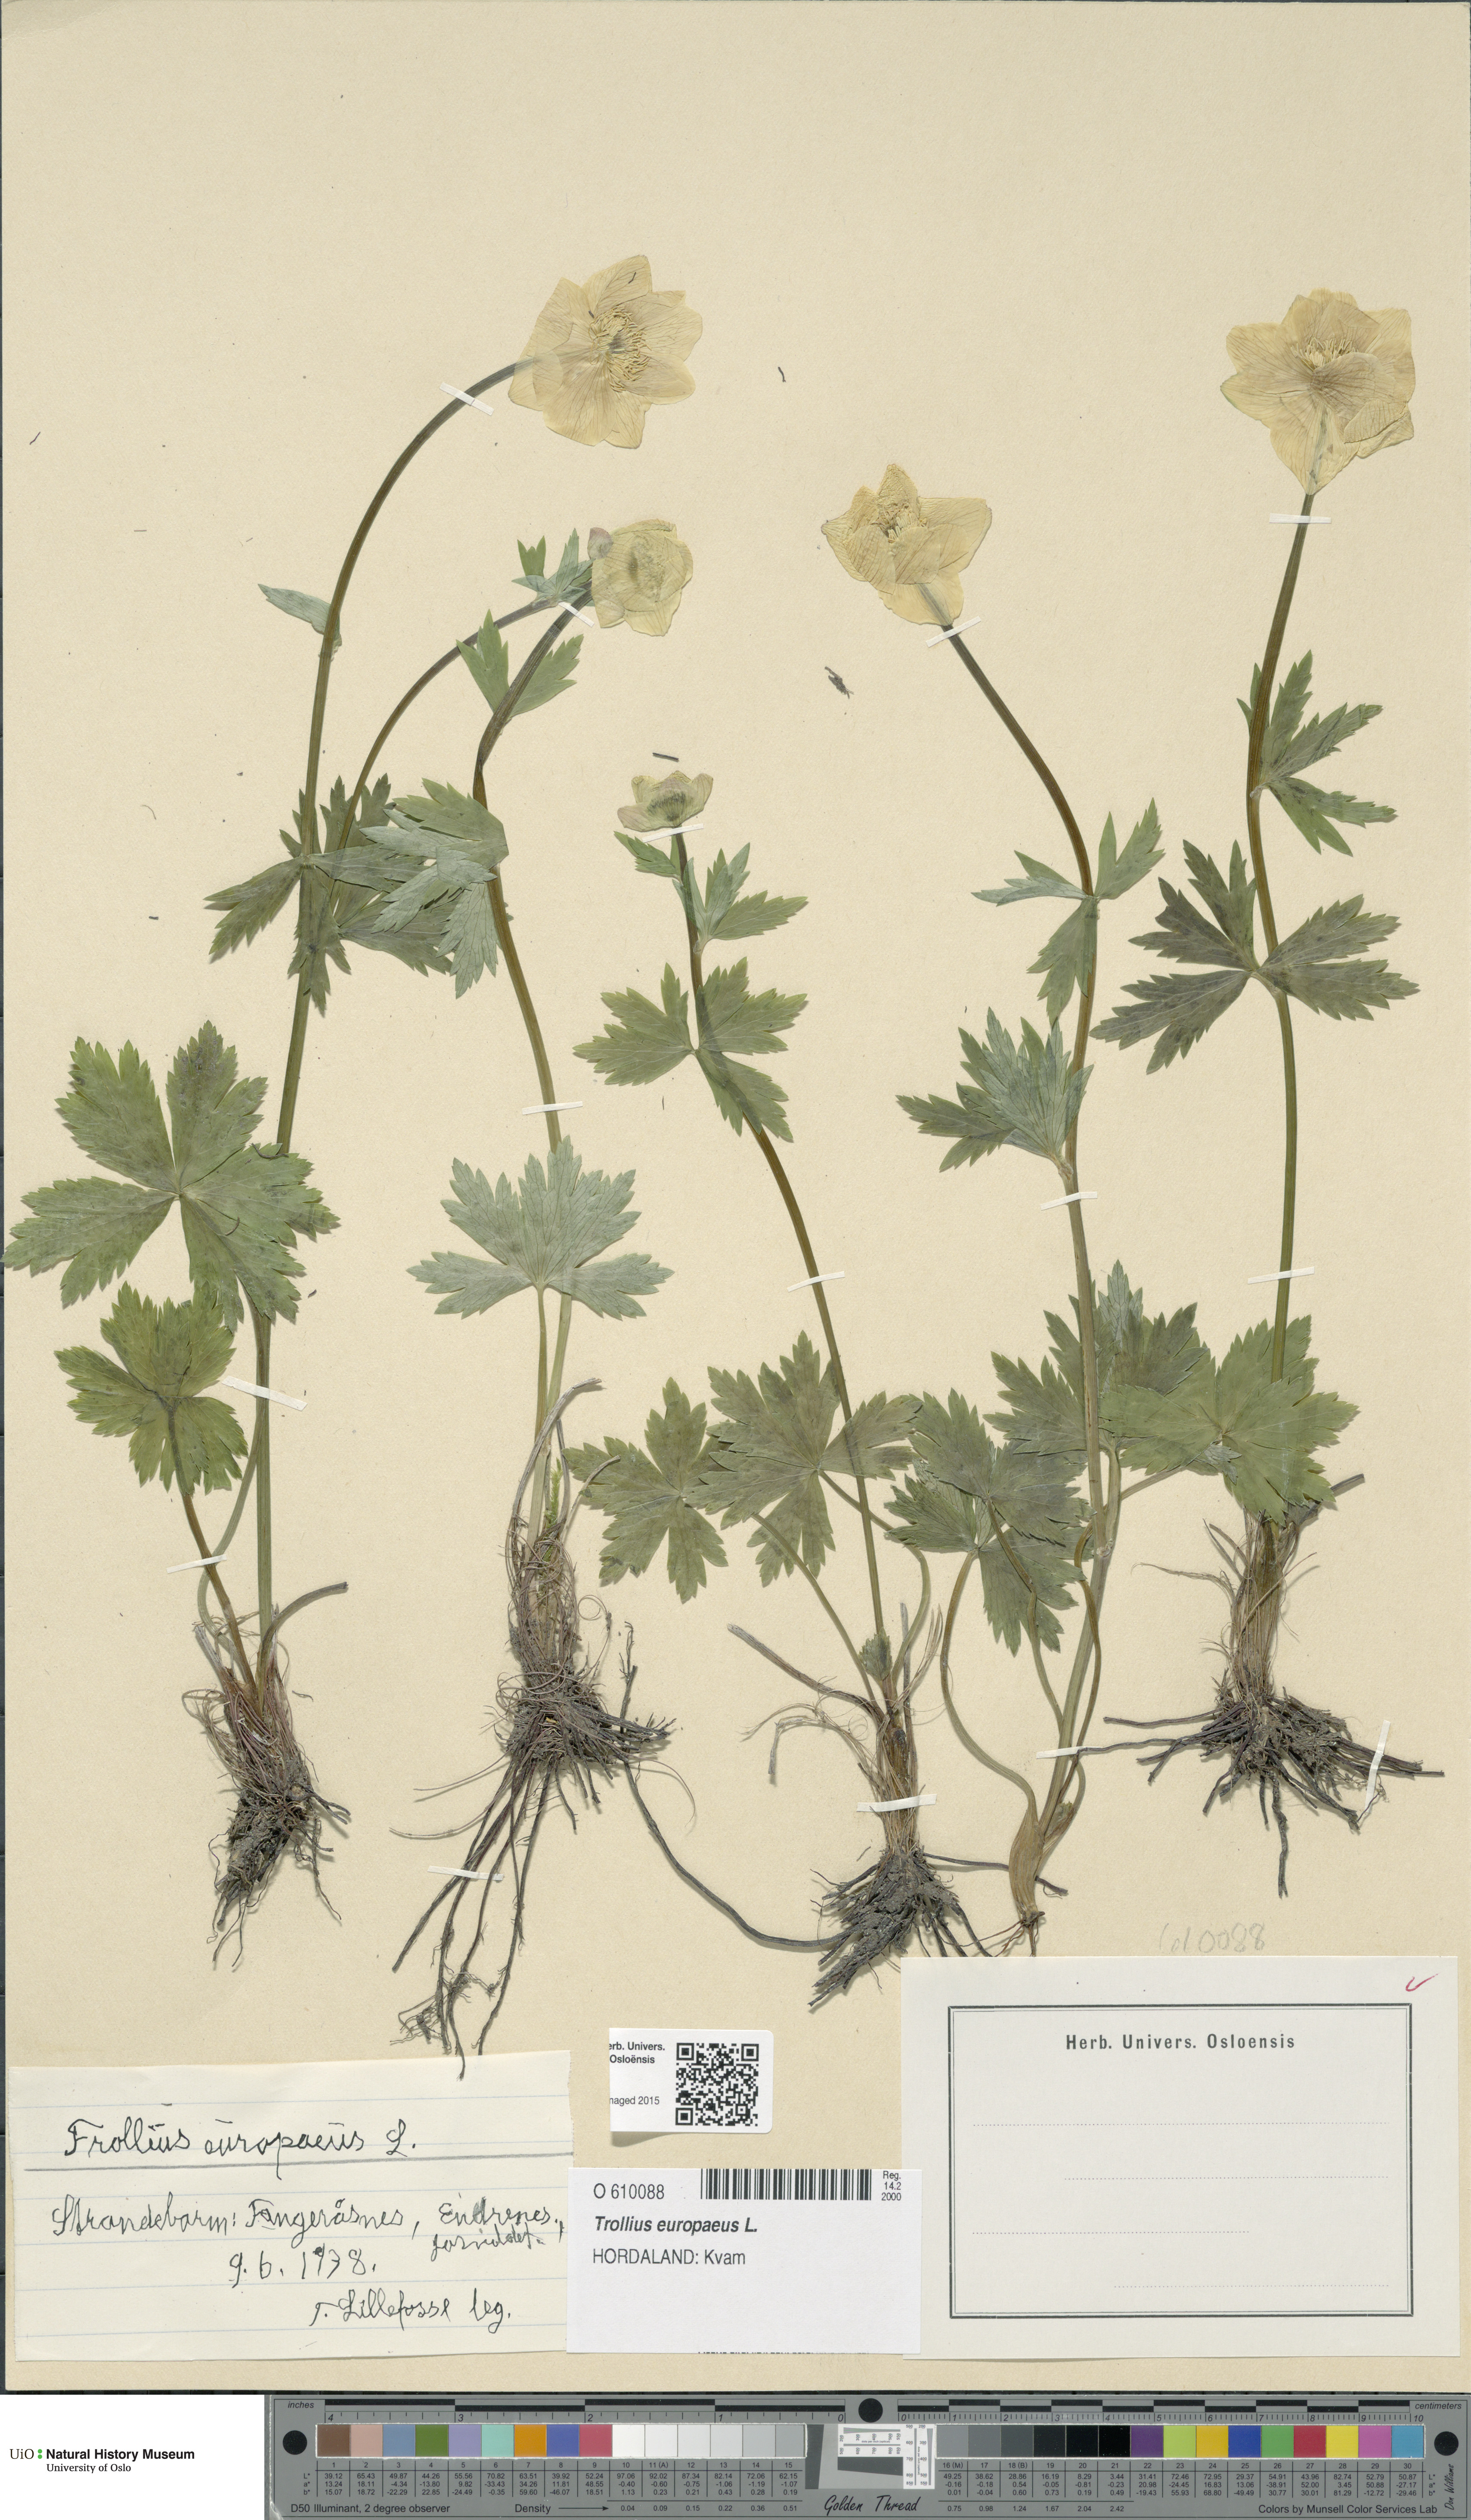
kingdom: Plantae
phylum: Tracheophyta
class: Magnoliopsida
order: Ranunculales
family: Ranunculaceae
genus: Trollius
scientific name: Trollius europaeus
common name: European globeflower
